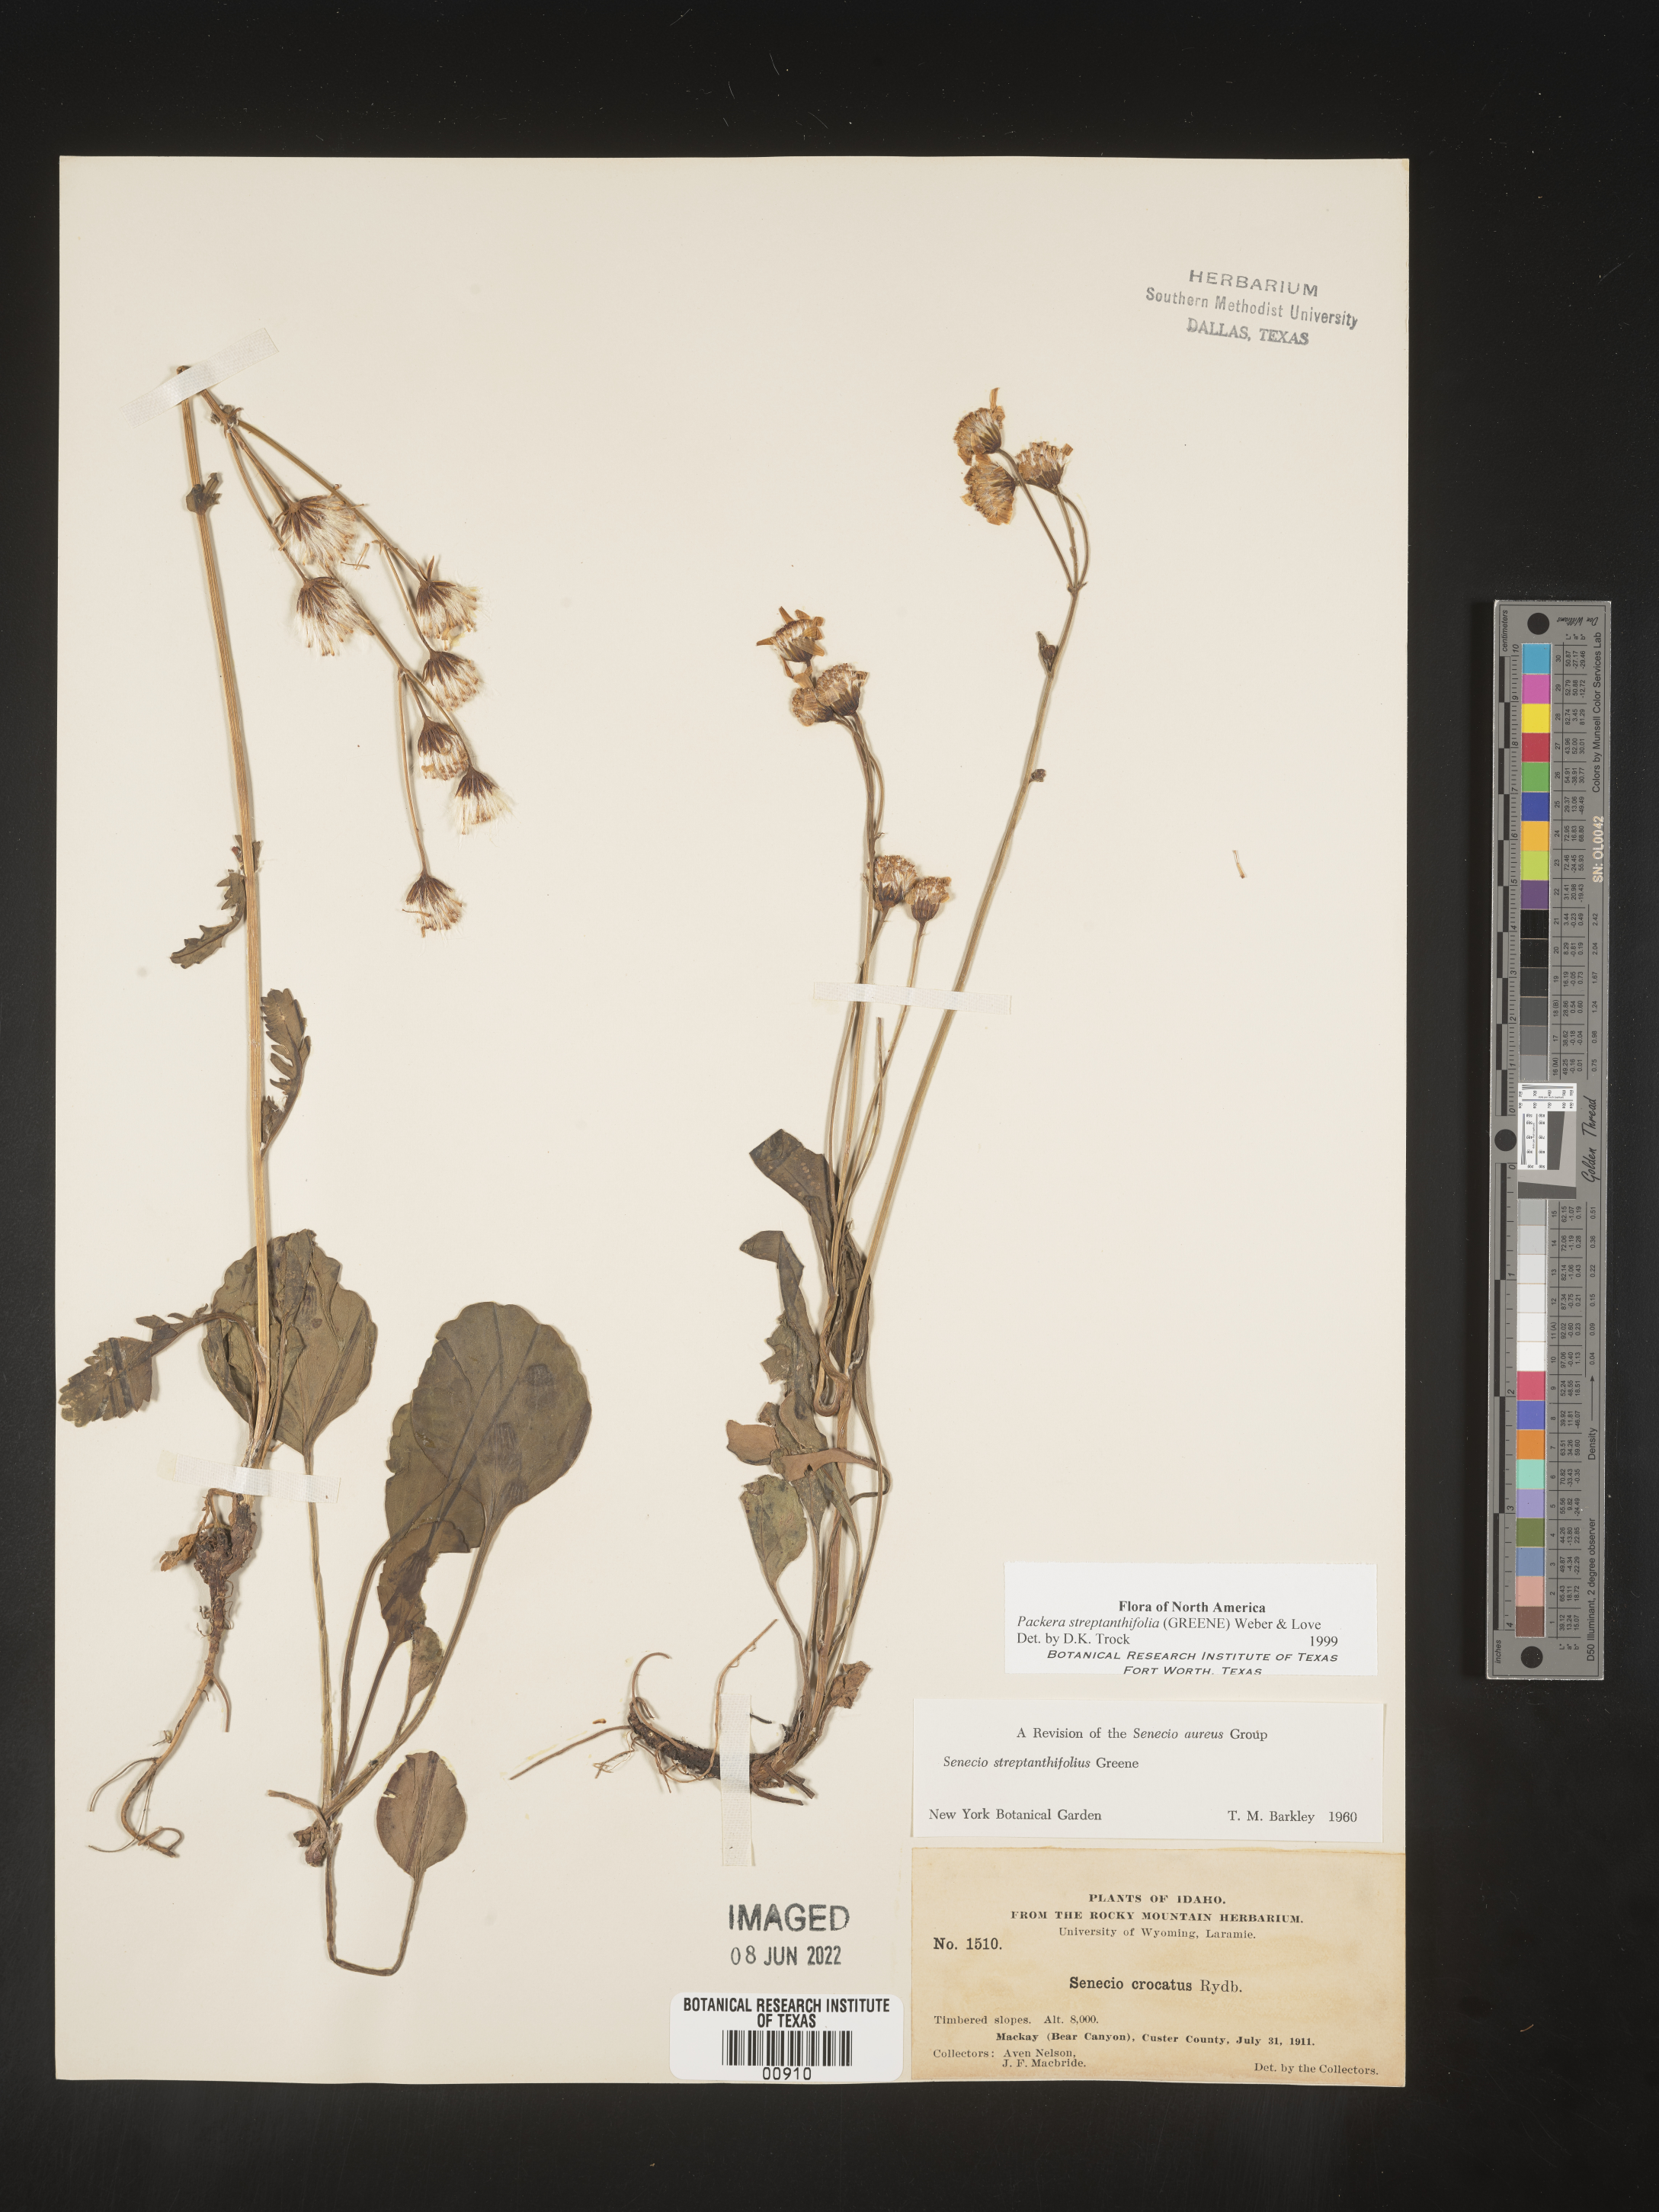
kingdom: Plantae
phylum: Tracheophyta
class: Magnoliopsida
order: Asterales
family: Asteraceae
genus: Packera
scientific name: Packera streptanthifolia
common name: Rocky mountain butterweed
